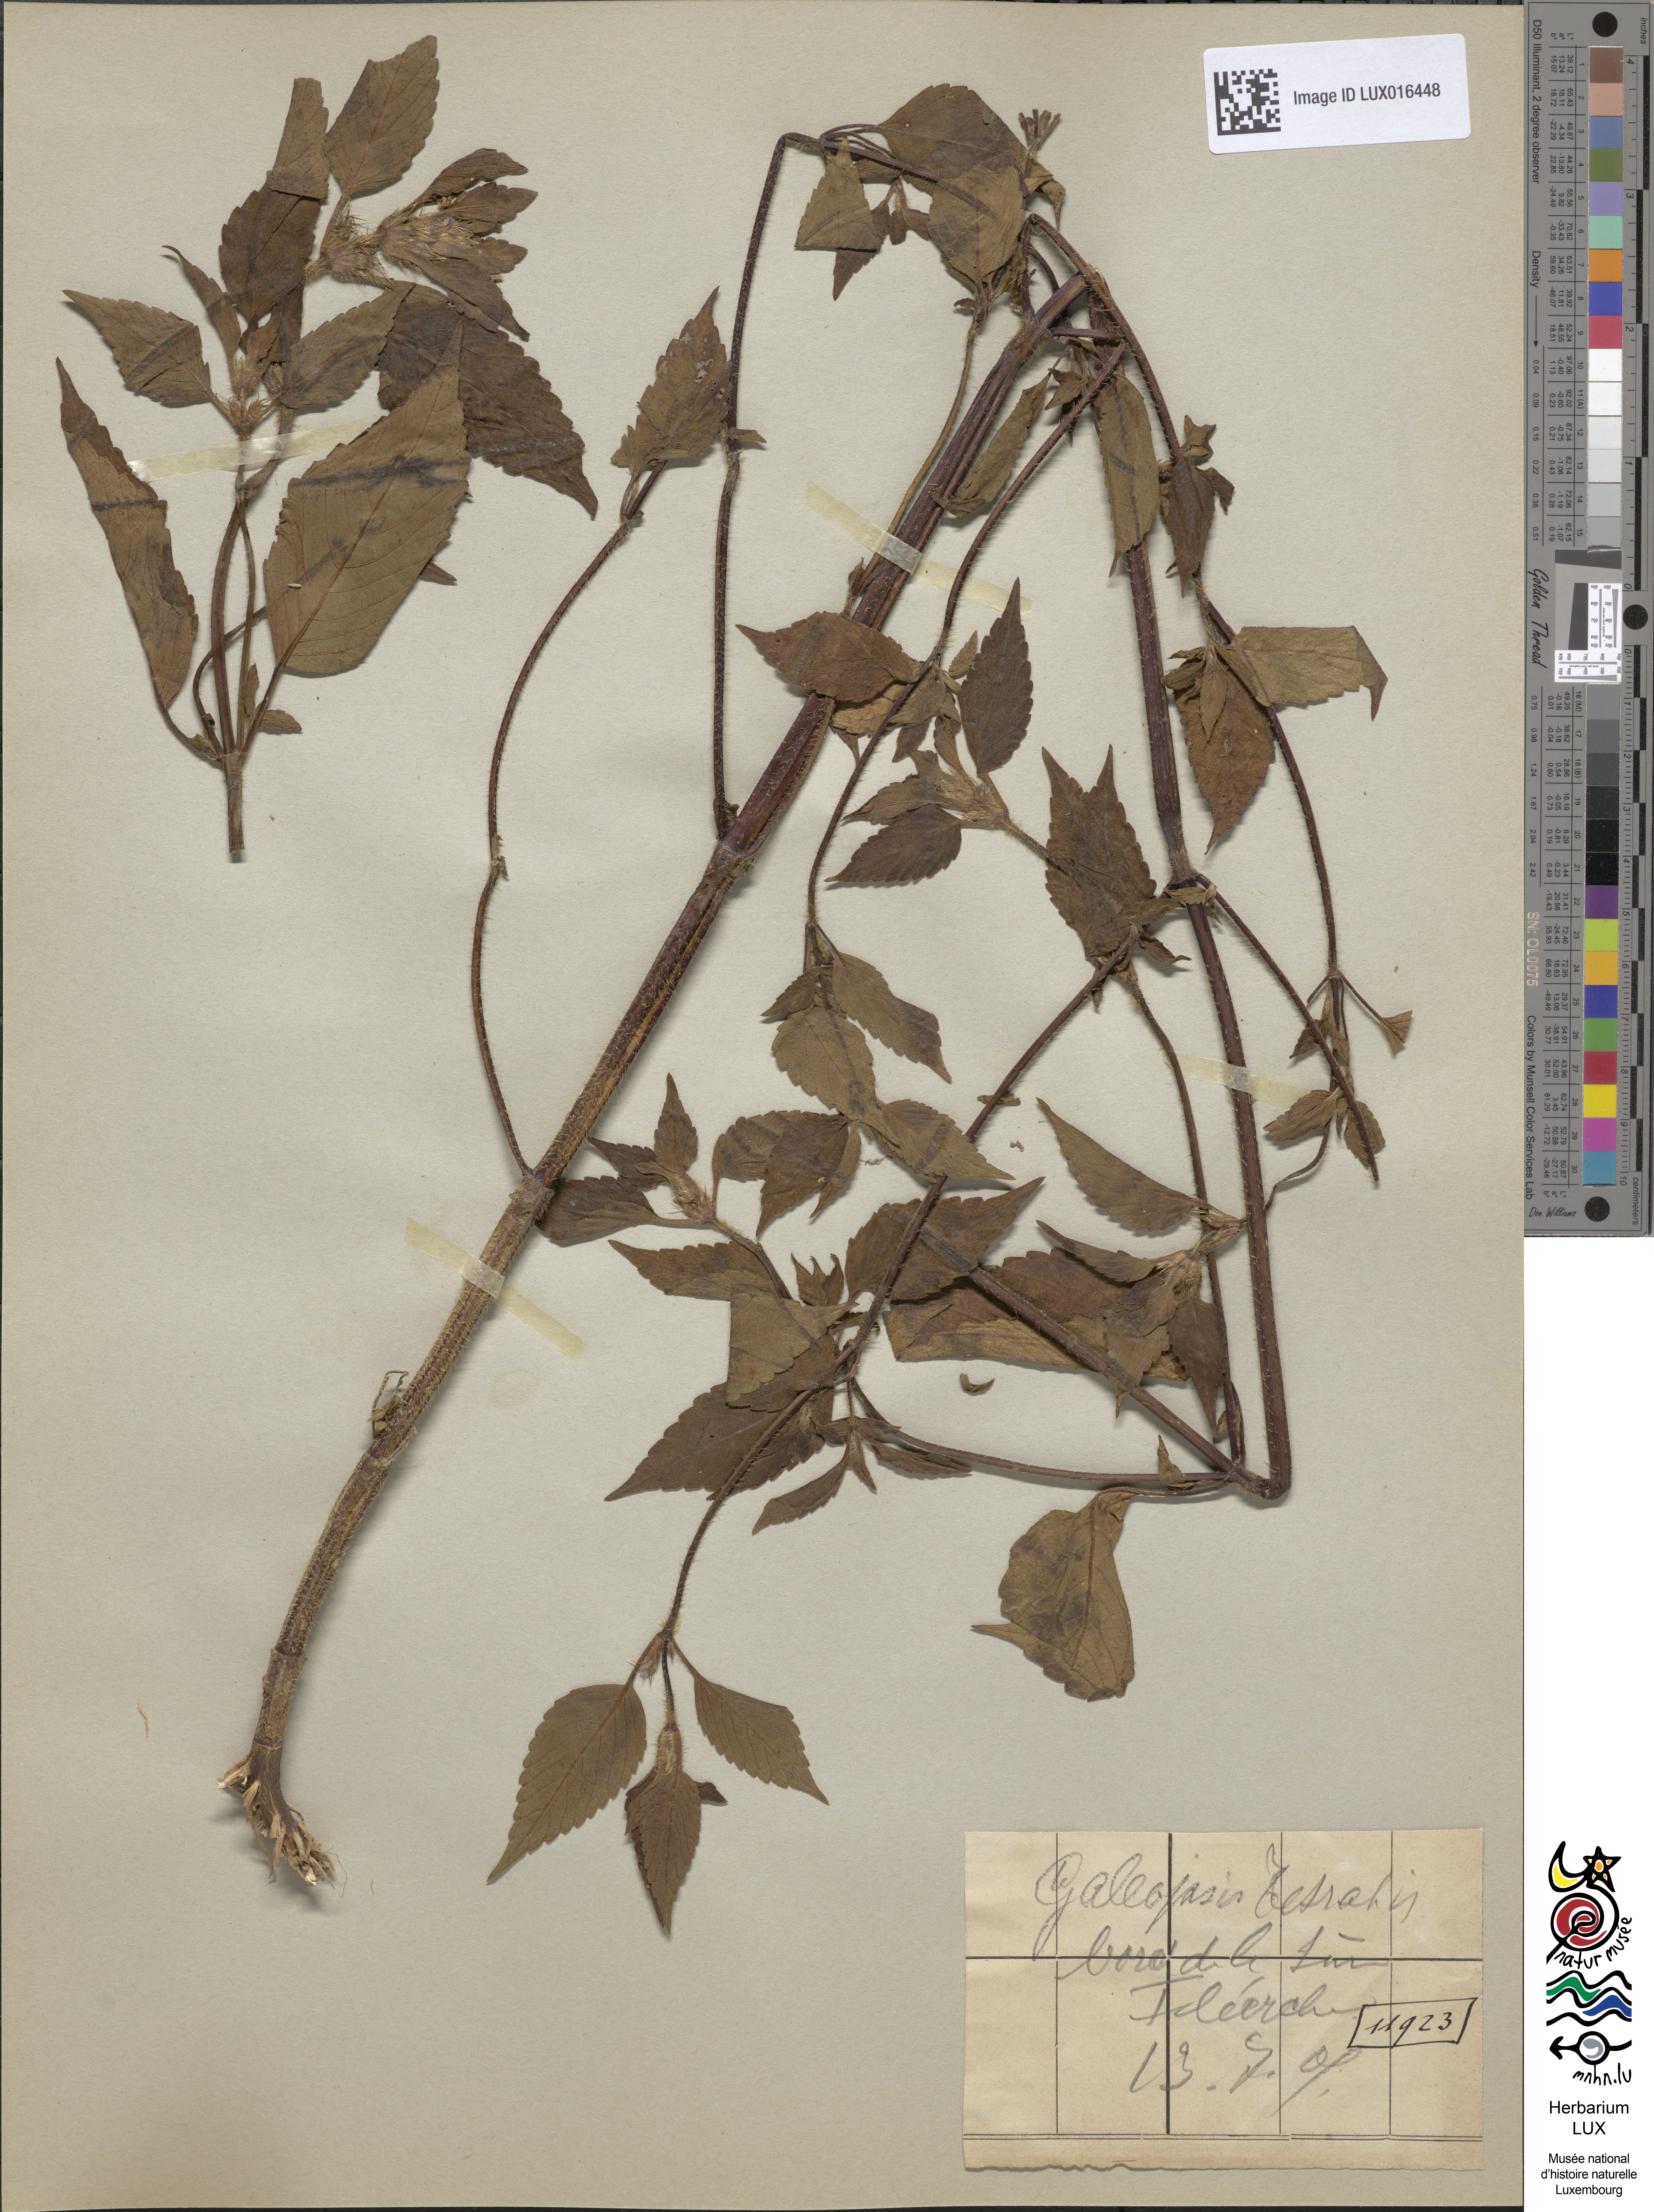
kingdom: Plantae
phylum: Tracheophyta
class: Magnoliopsida
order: Lamiales
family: Lamiaceae
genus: Galeopsis
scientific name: Galeopsis tetrahit
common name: Common hemp-nettle
